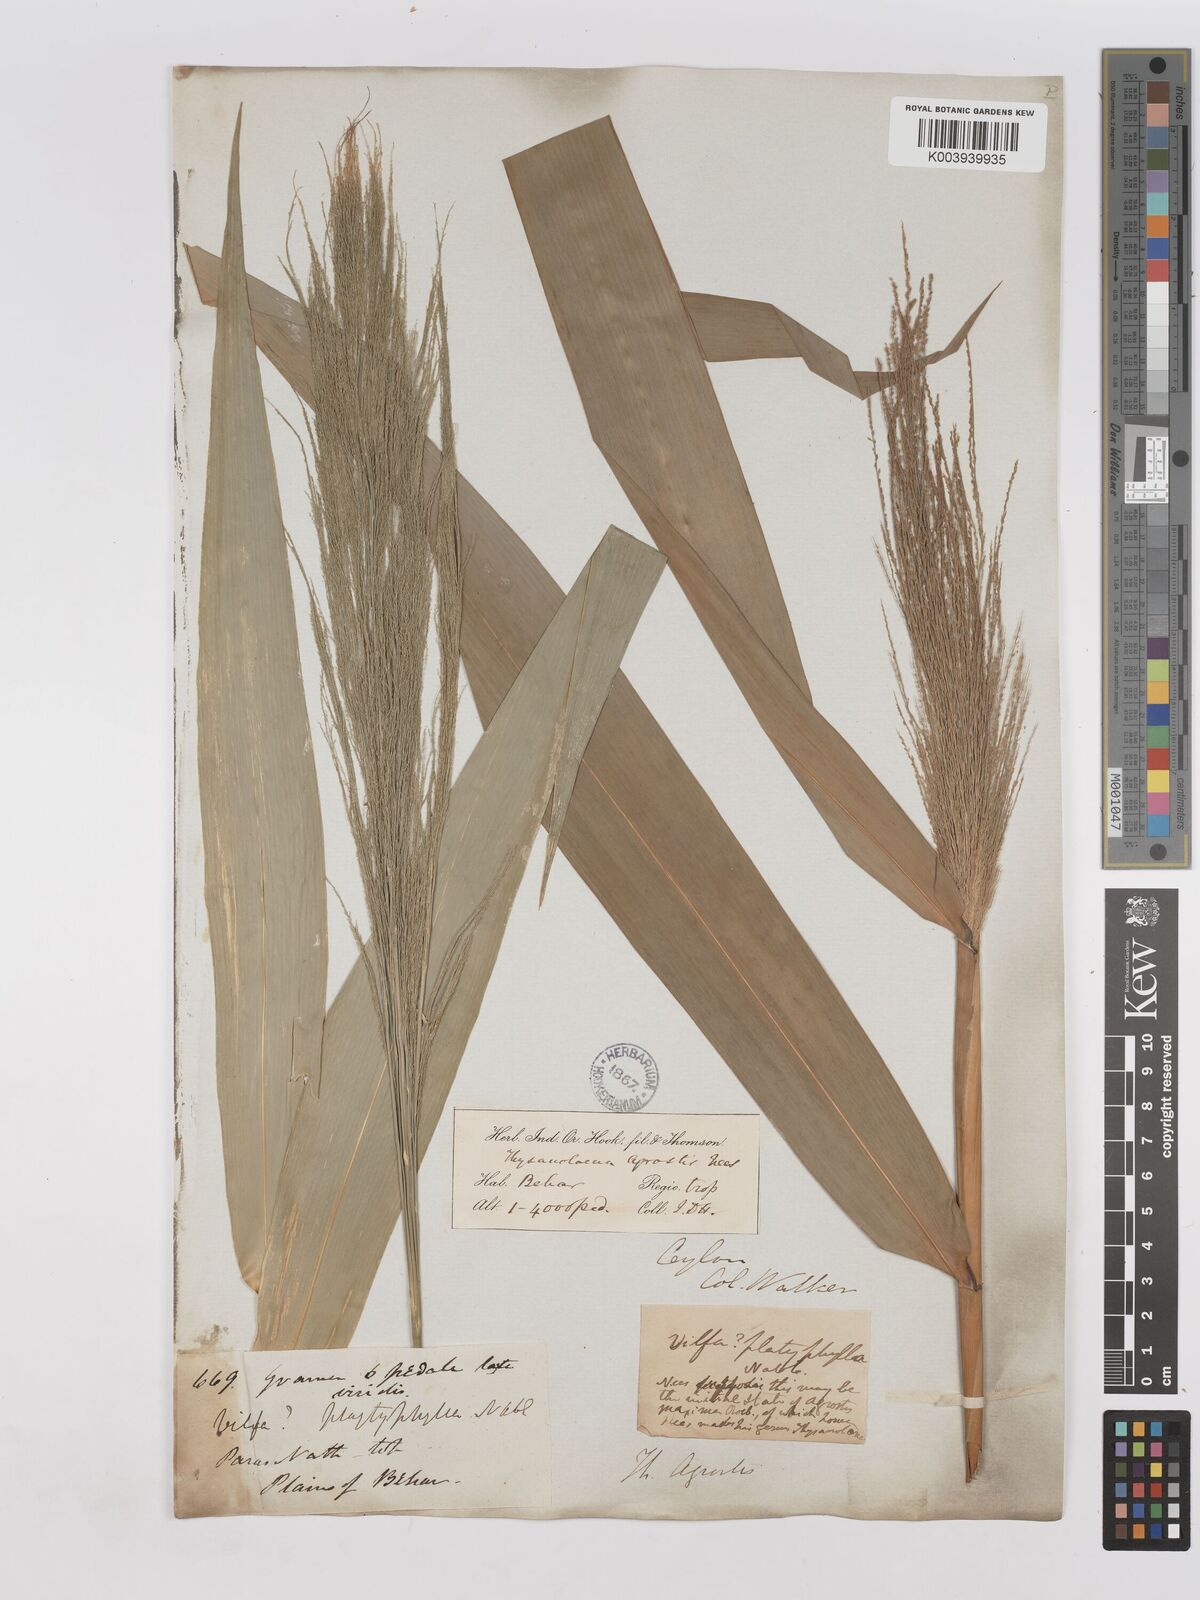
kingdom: Plantae
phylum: Tracheophyta
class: Liliopsida
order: Poales
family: Poaceae
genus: Thysanolaena
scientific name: Thysanolaena latifolia
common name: Tiger grass
